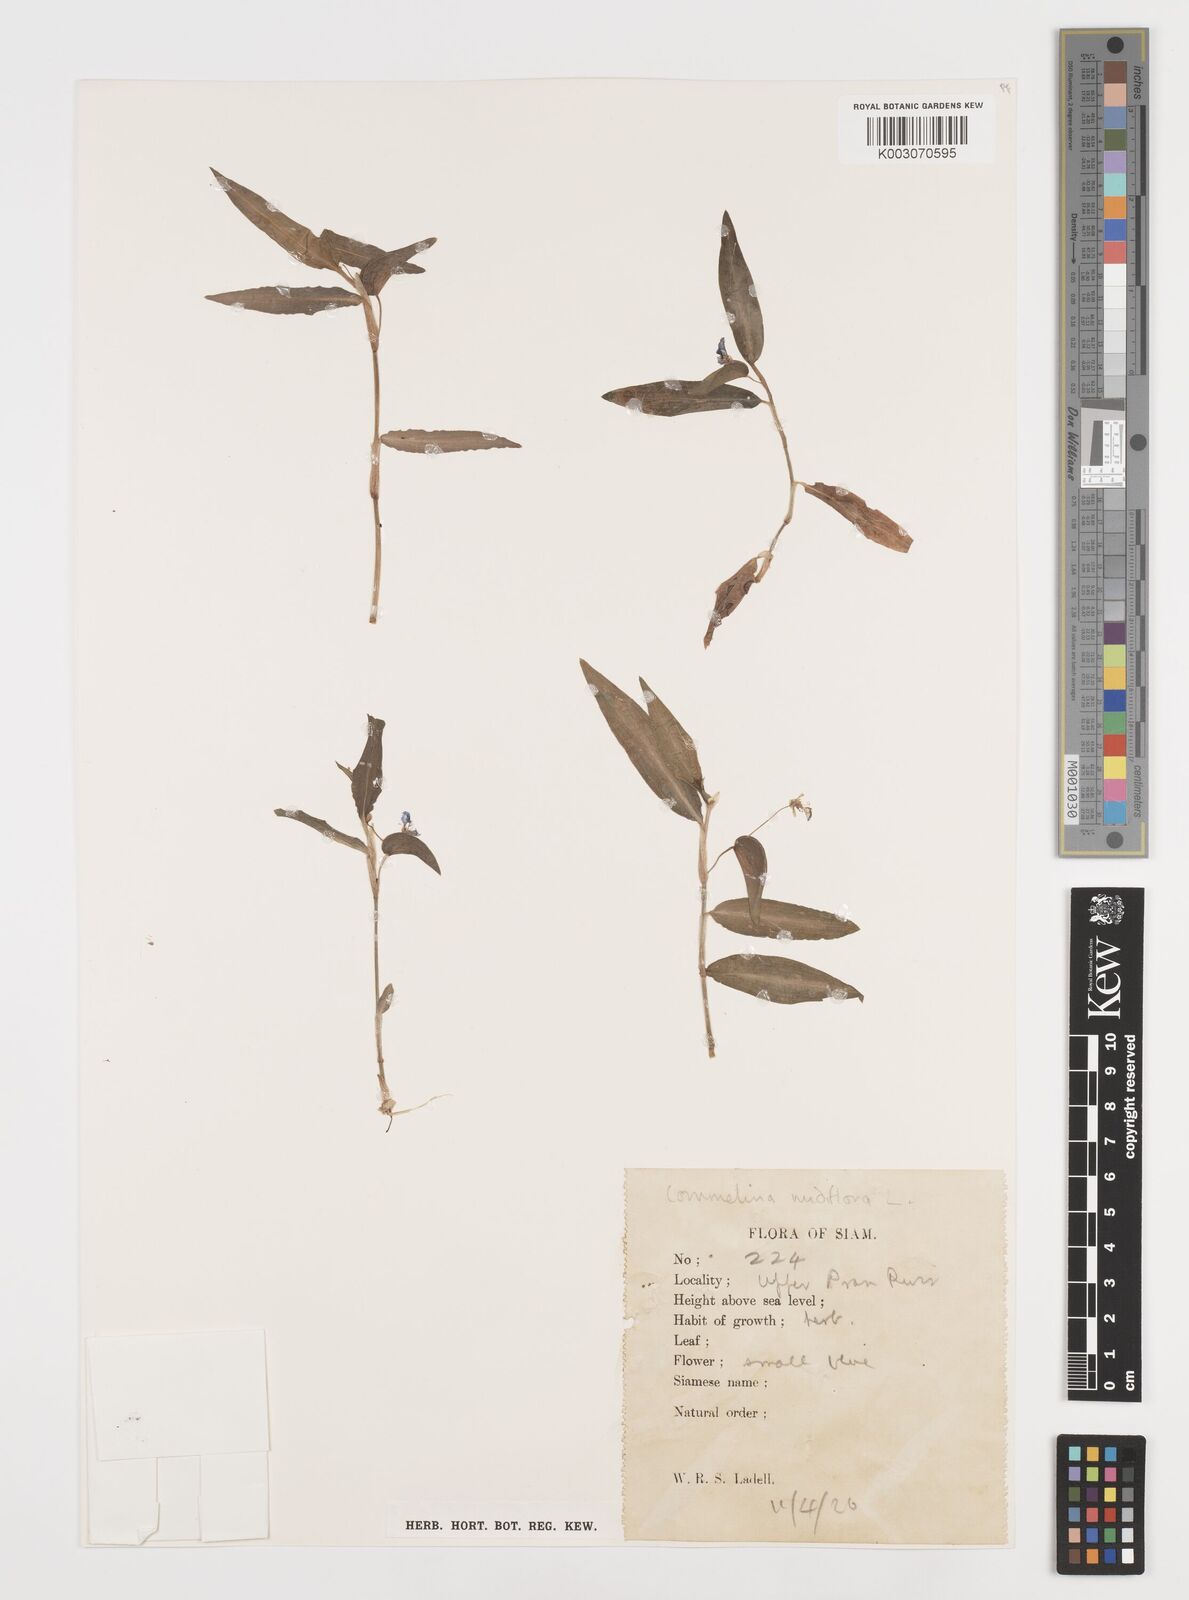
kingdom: Plantae
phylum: Tracheophyta
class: Liliopsida
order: Commelinales
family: Commelinaceae
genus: Commelina
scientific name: Commelina clavata
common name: Willow leaved dayflower
